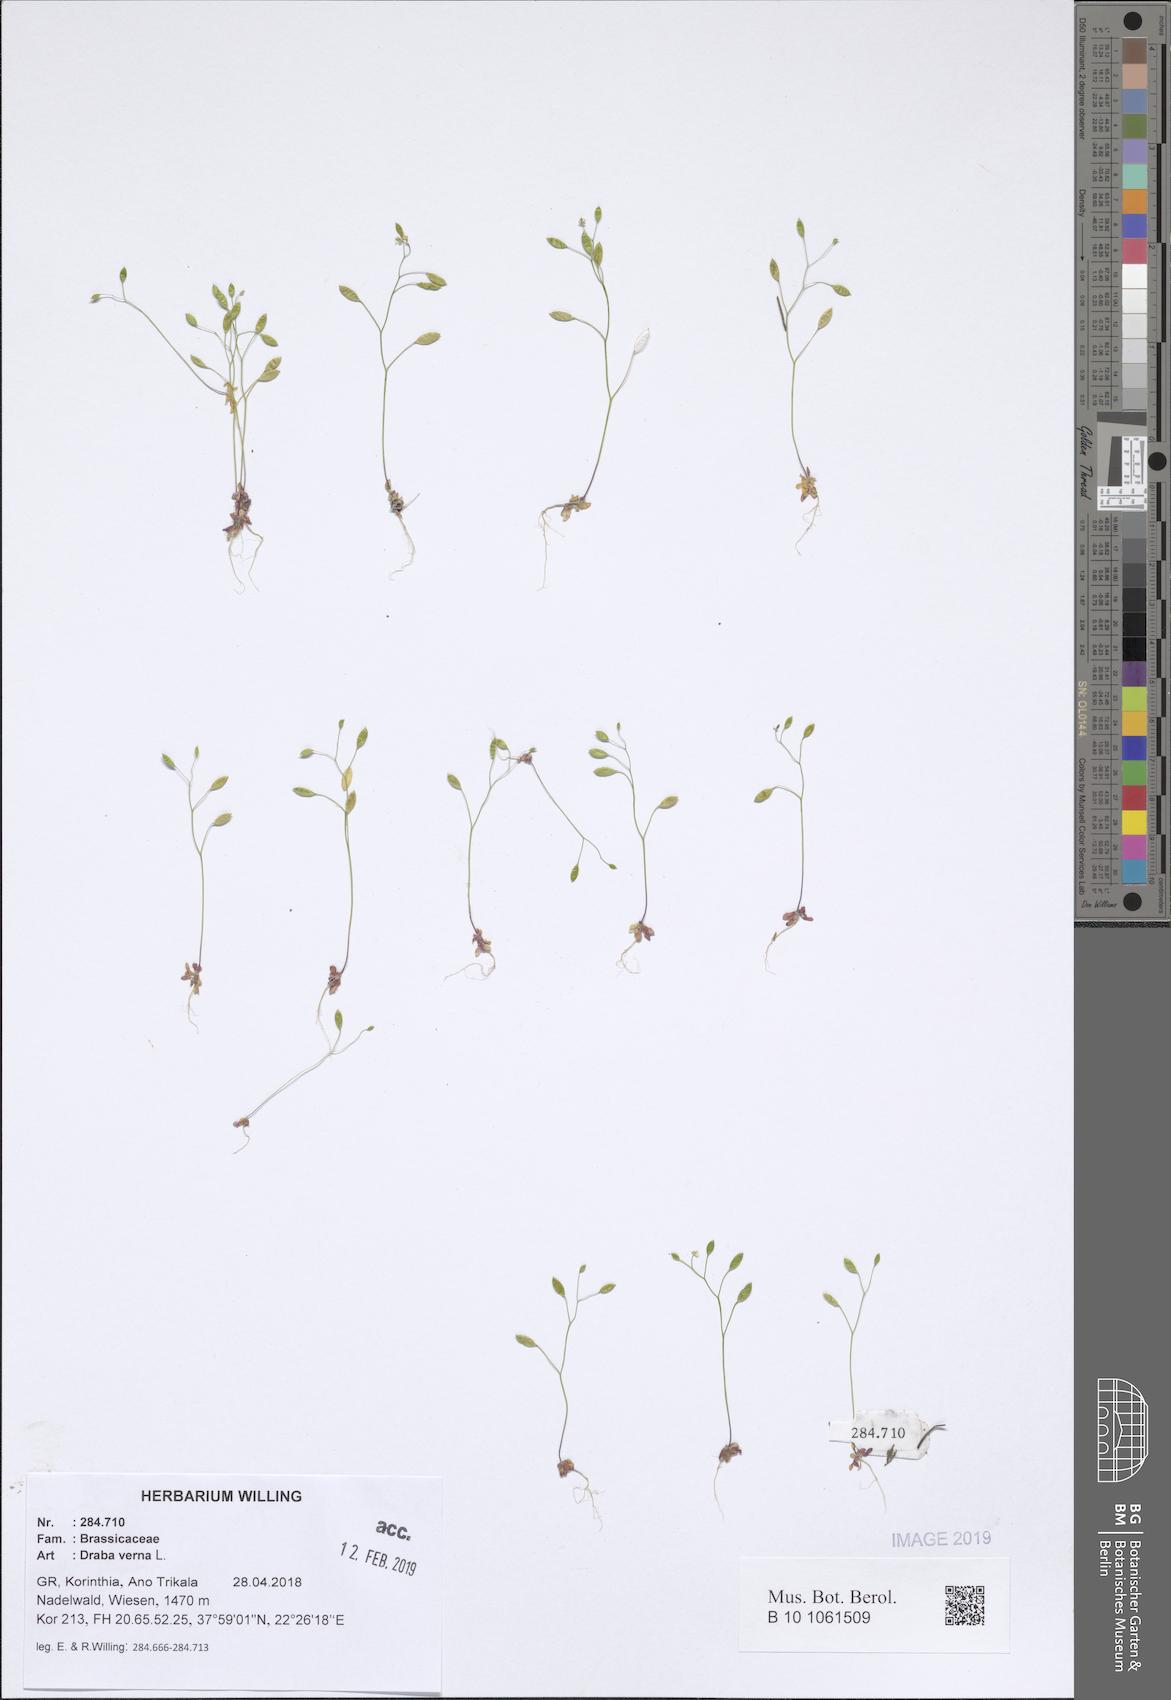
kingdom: Plantae
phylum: Tracheophyta
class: Magnoliopsida
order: Brassicales
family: Brassicaceae
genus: Draba
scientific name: Draba verna
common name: Spring draba
